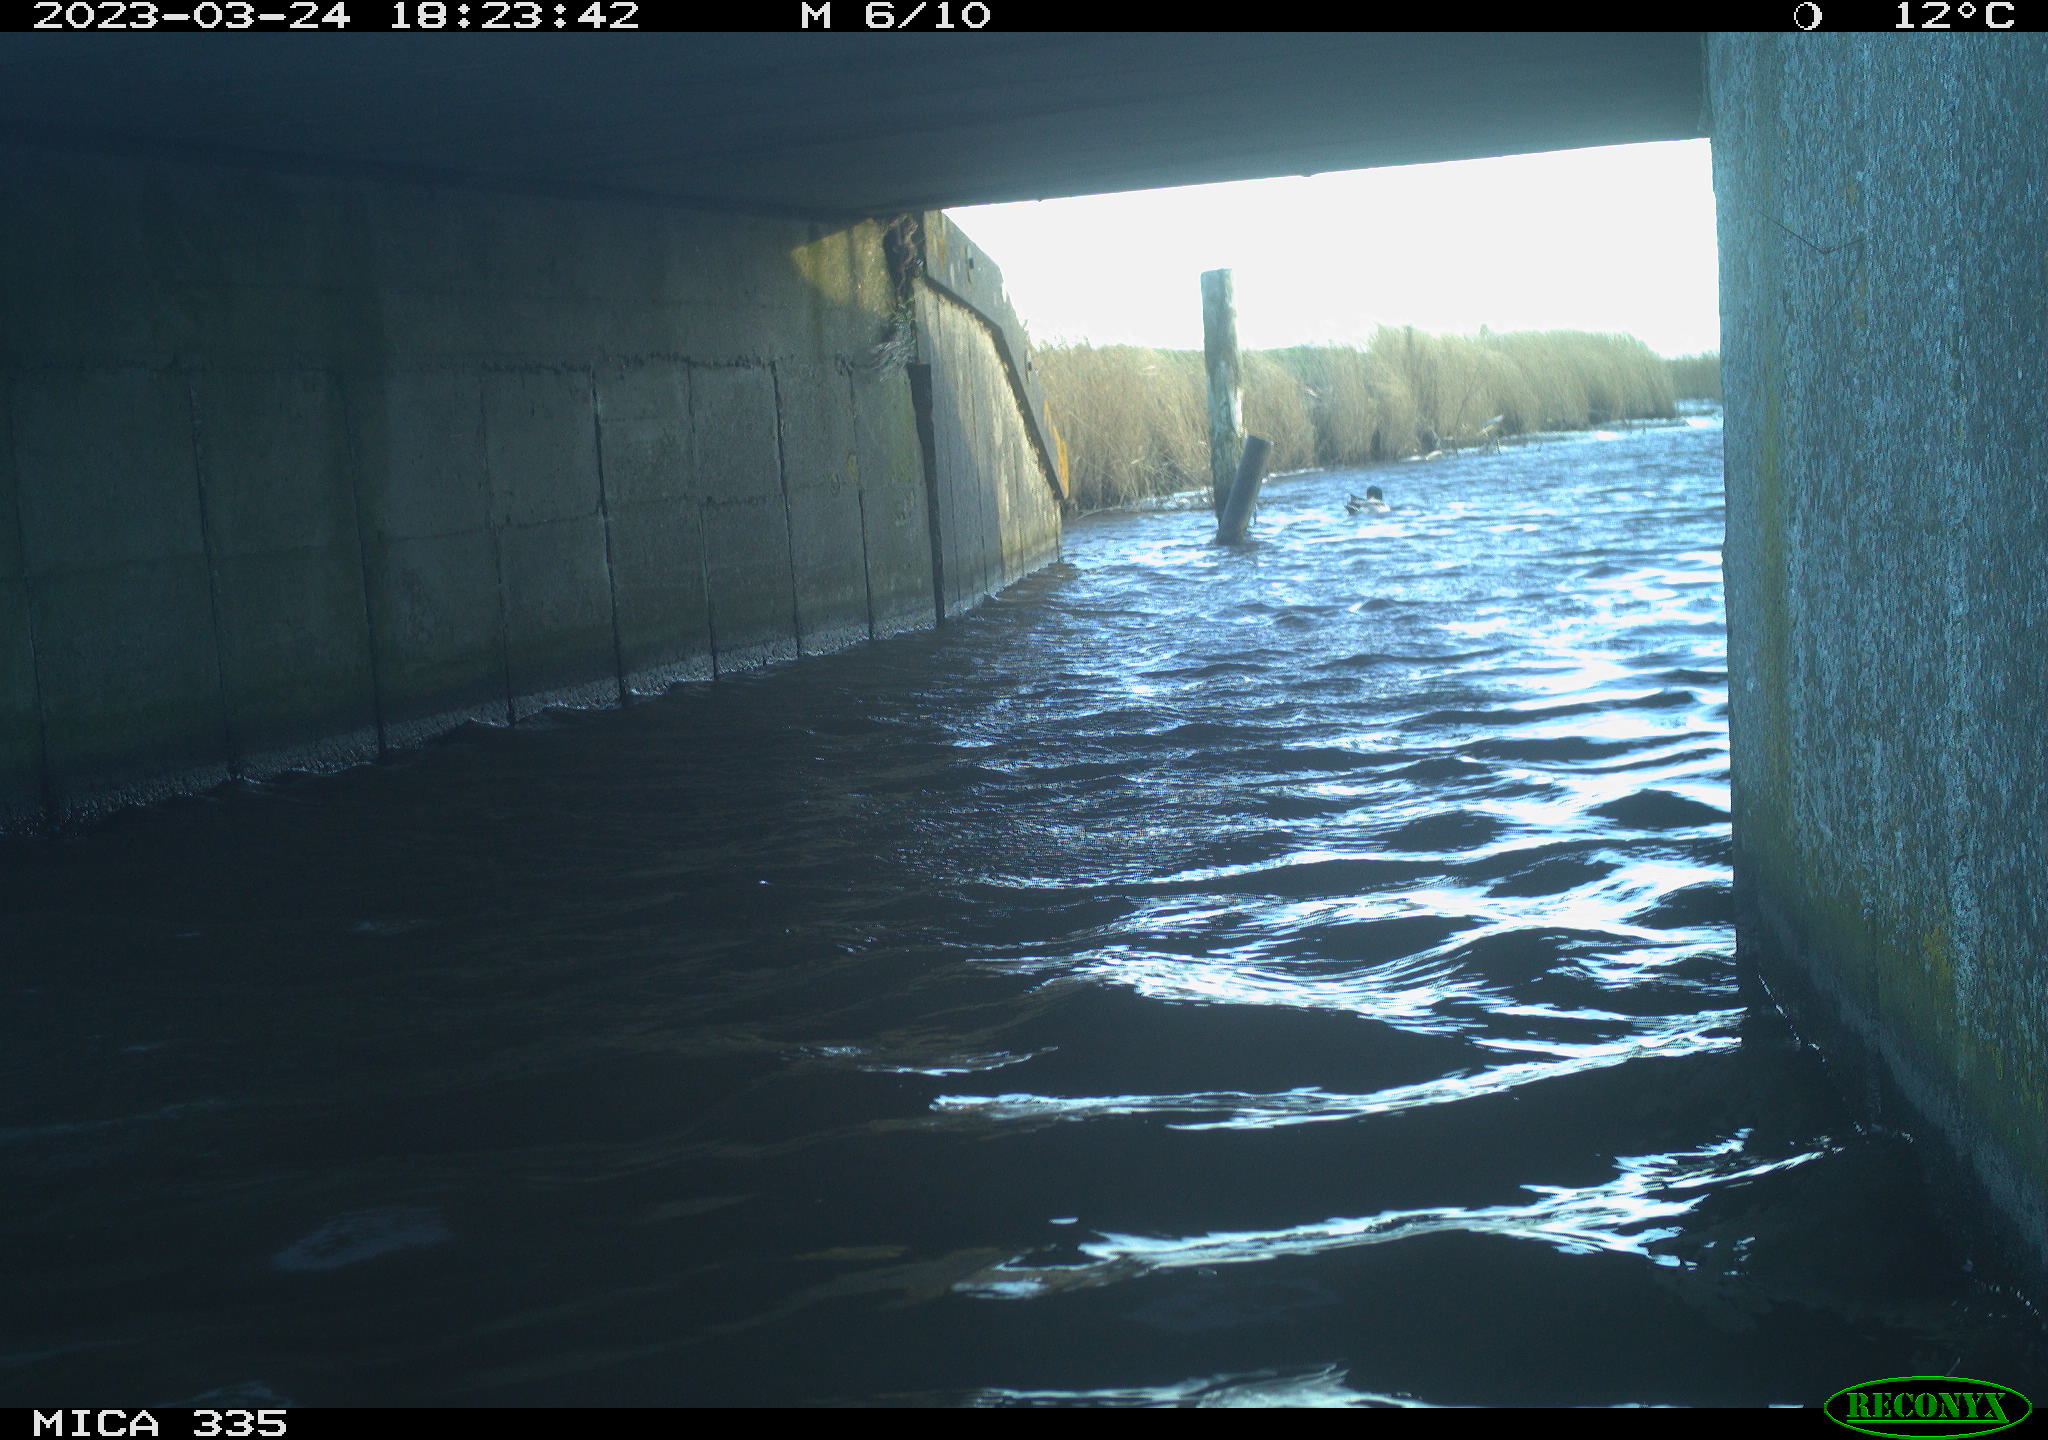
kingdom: Animalia
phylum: Chordata
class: Aves
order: Anseriformes
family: Anatidae
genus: Anas
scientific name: Anas platyrhynchos
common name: Mallard
